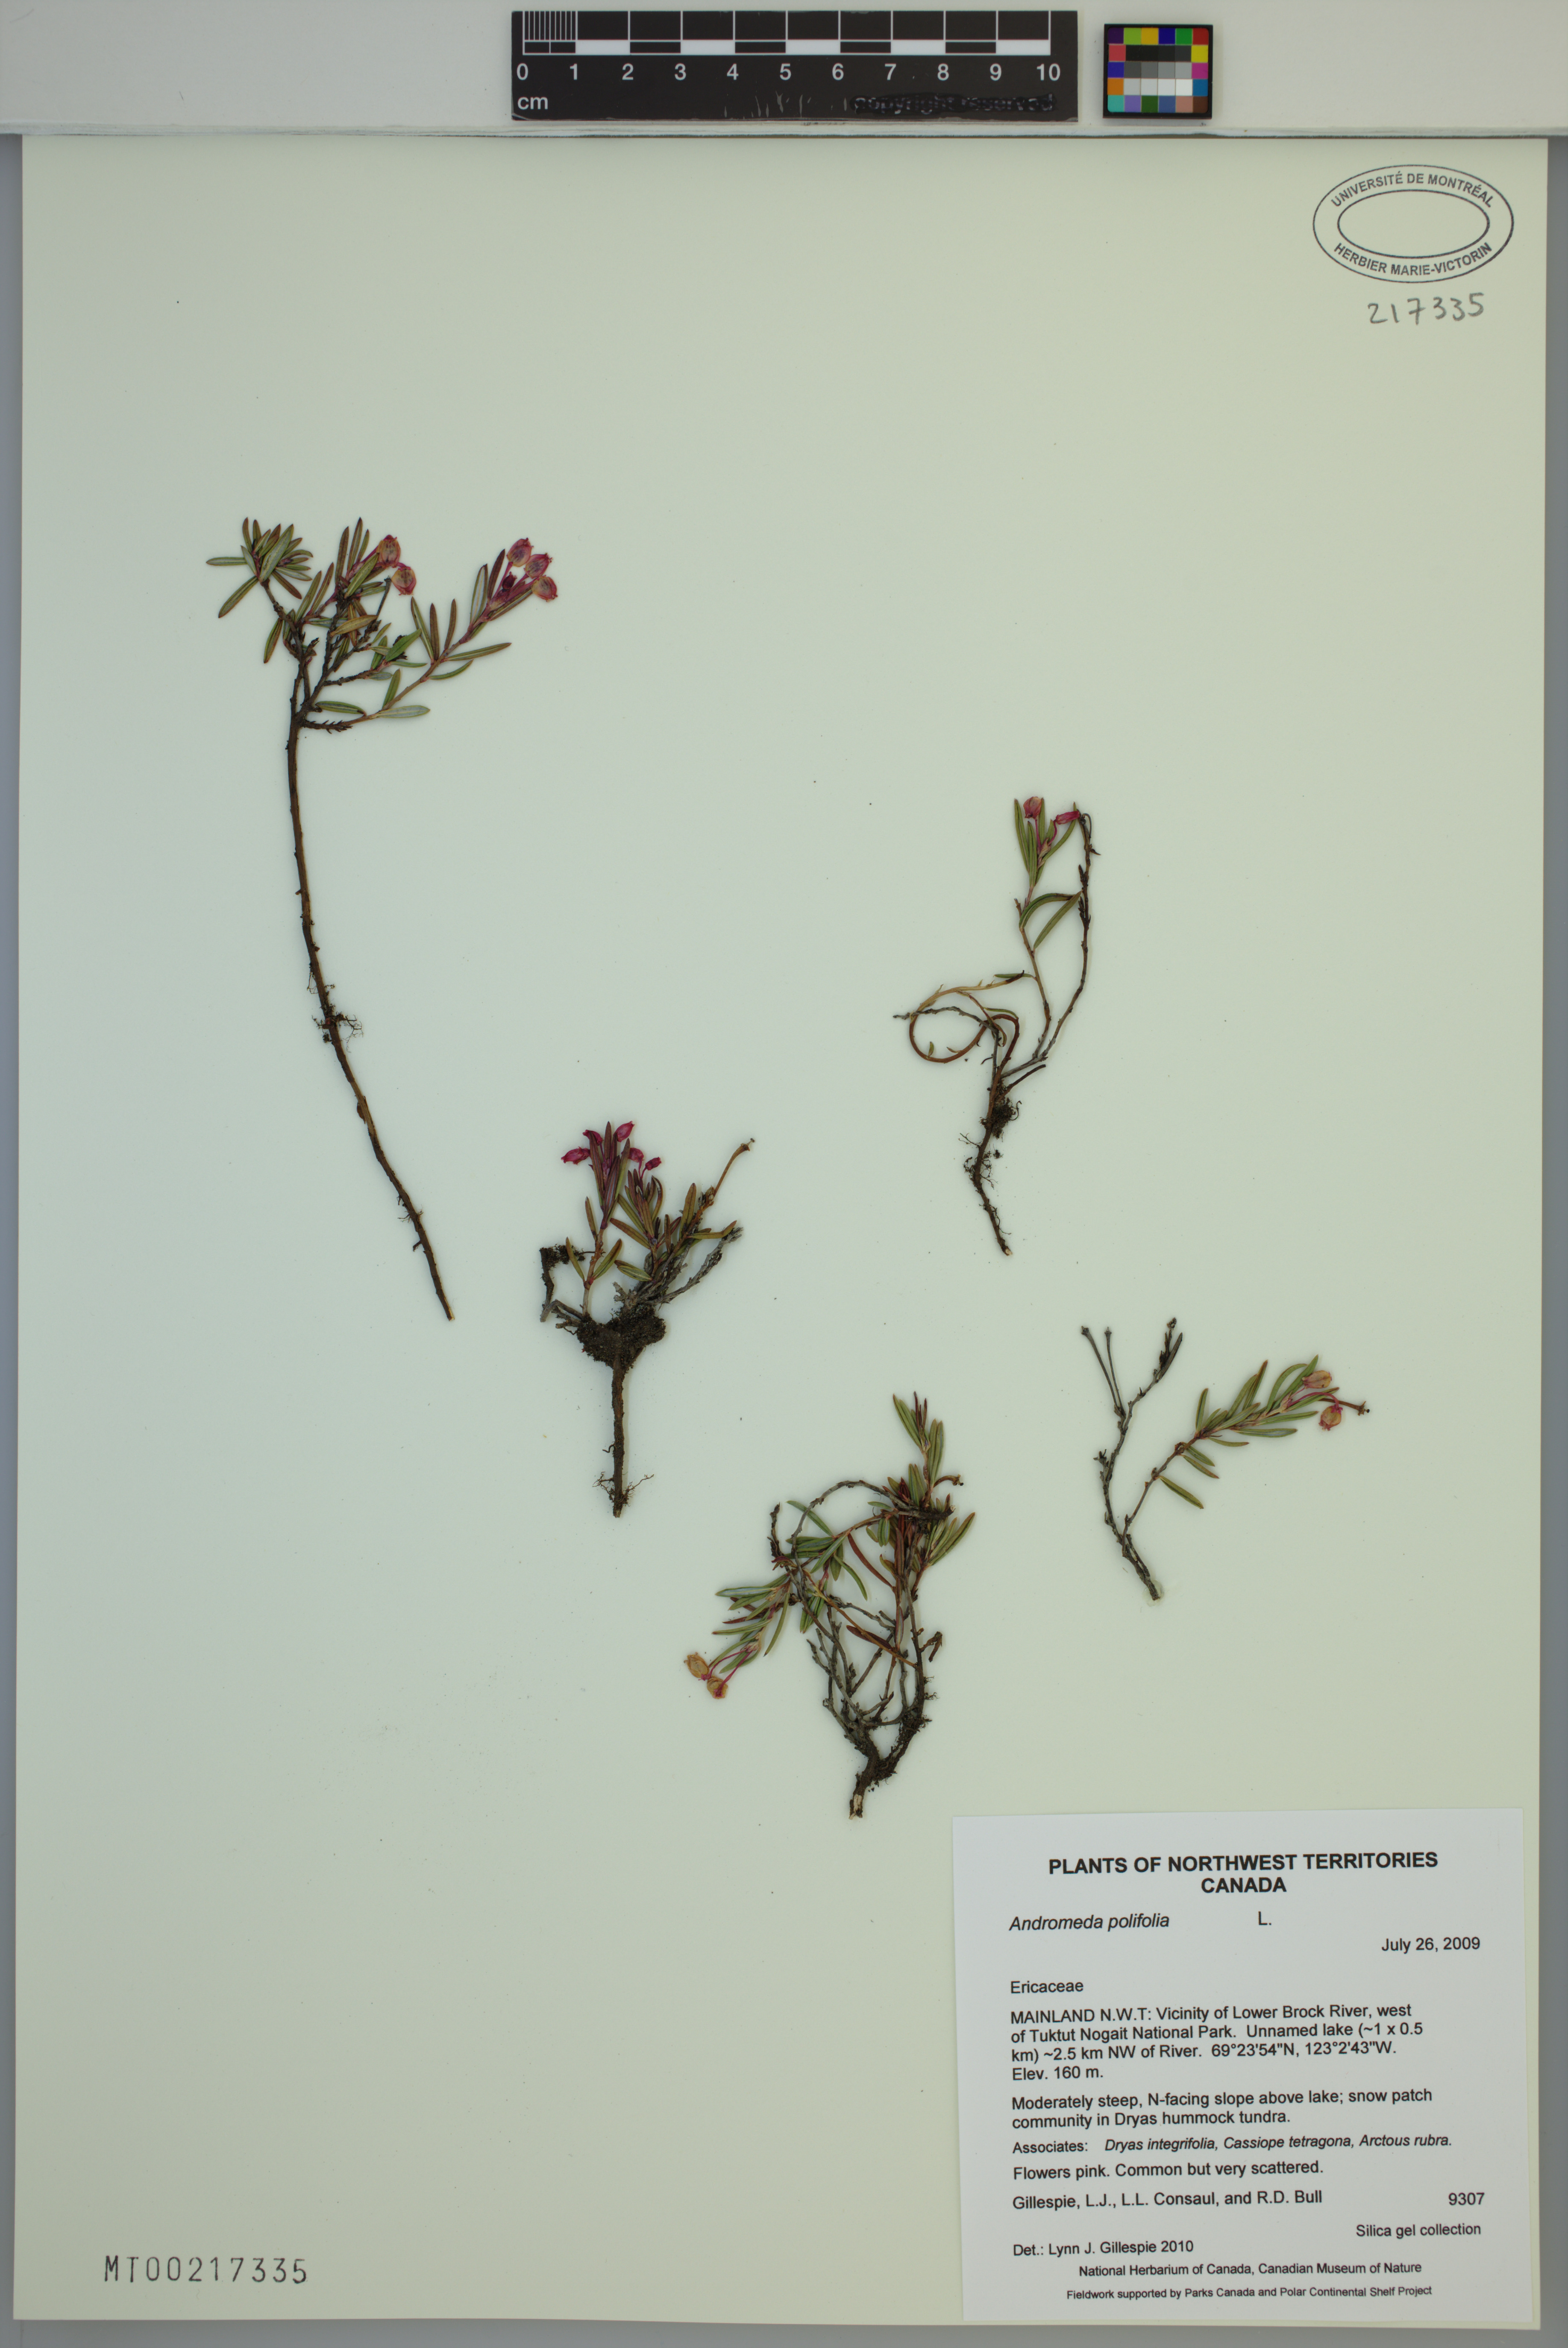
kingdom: Plantae
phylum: Tracheophyta
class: Magnoliopsida
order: Ericales
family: Ericaceae
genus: Andromeda
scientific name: Andromeda polifolia
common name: Bog-rosemary
